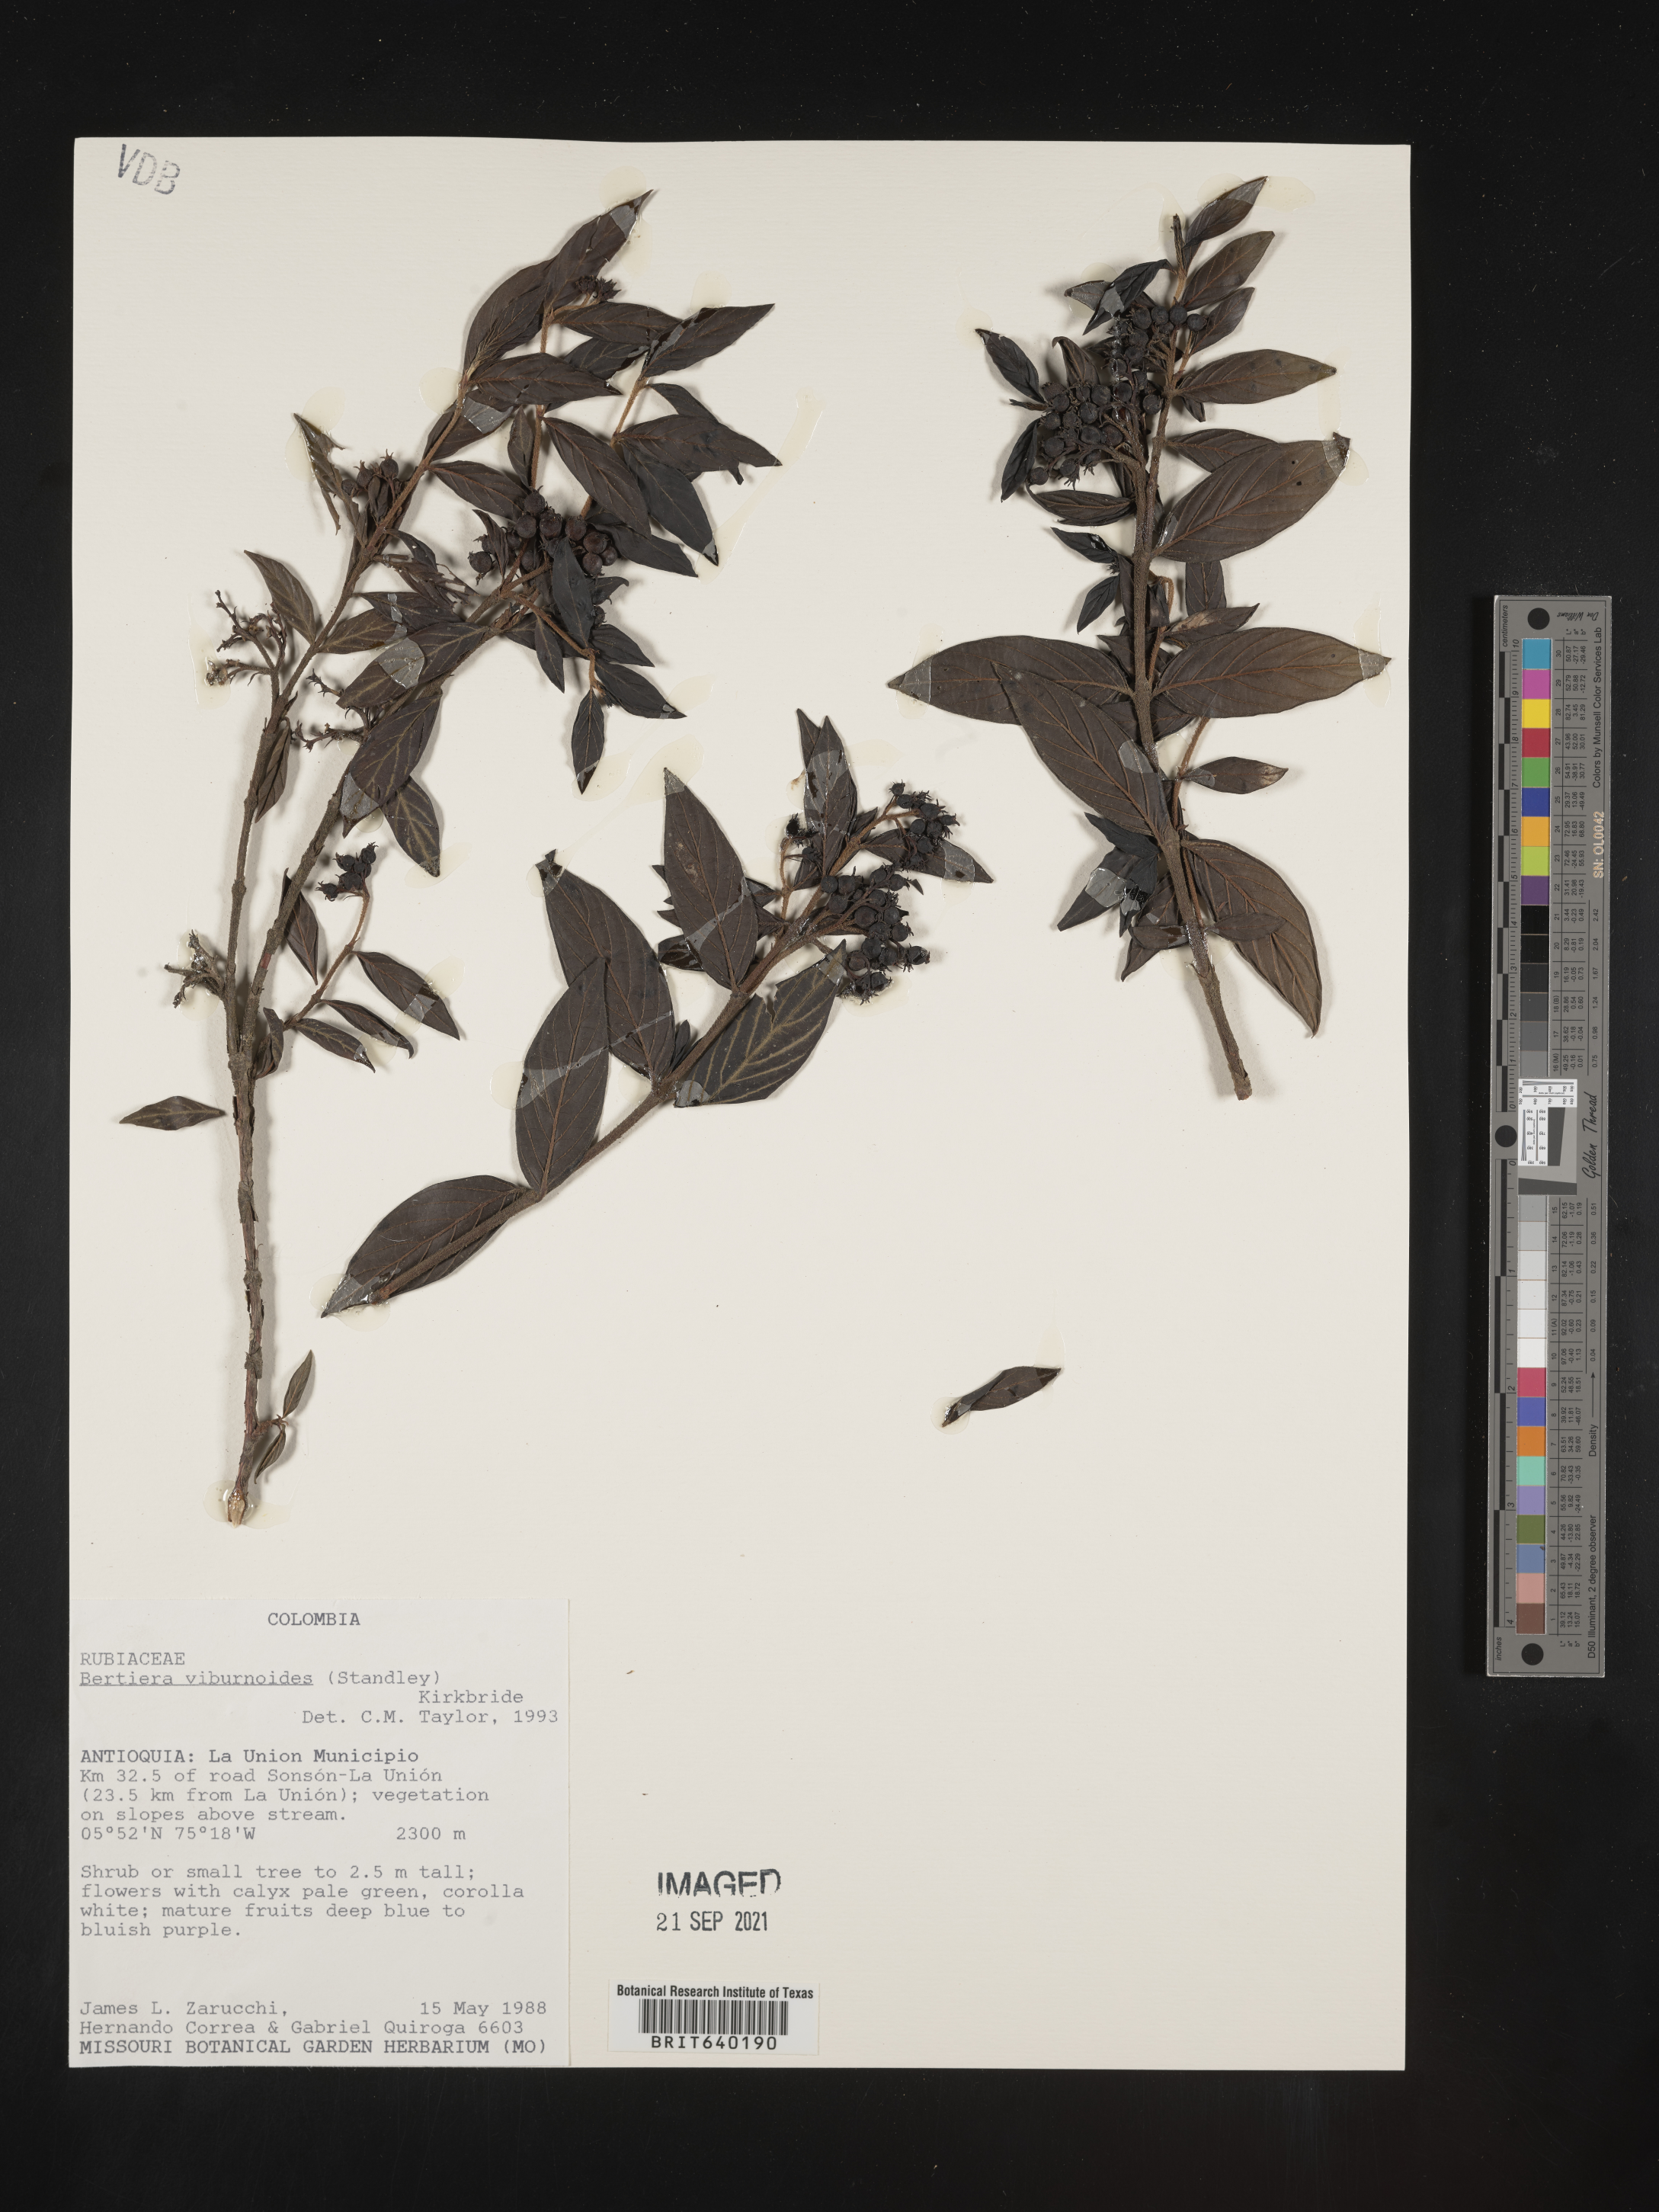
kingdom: Plantae
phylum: Tracheophyta
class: Magnoliopsida
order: Gentianales
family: Rubiaceae
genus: Bertiera
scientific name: Bertiera
